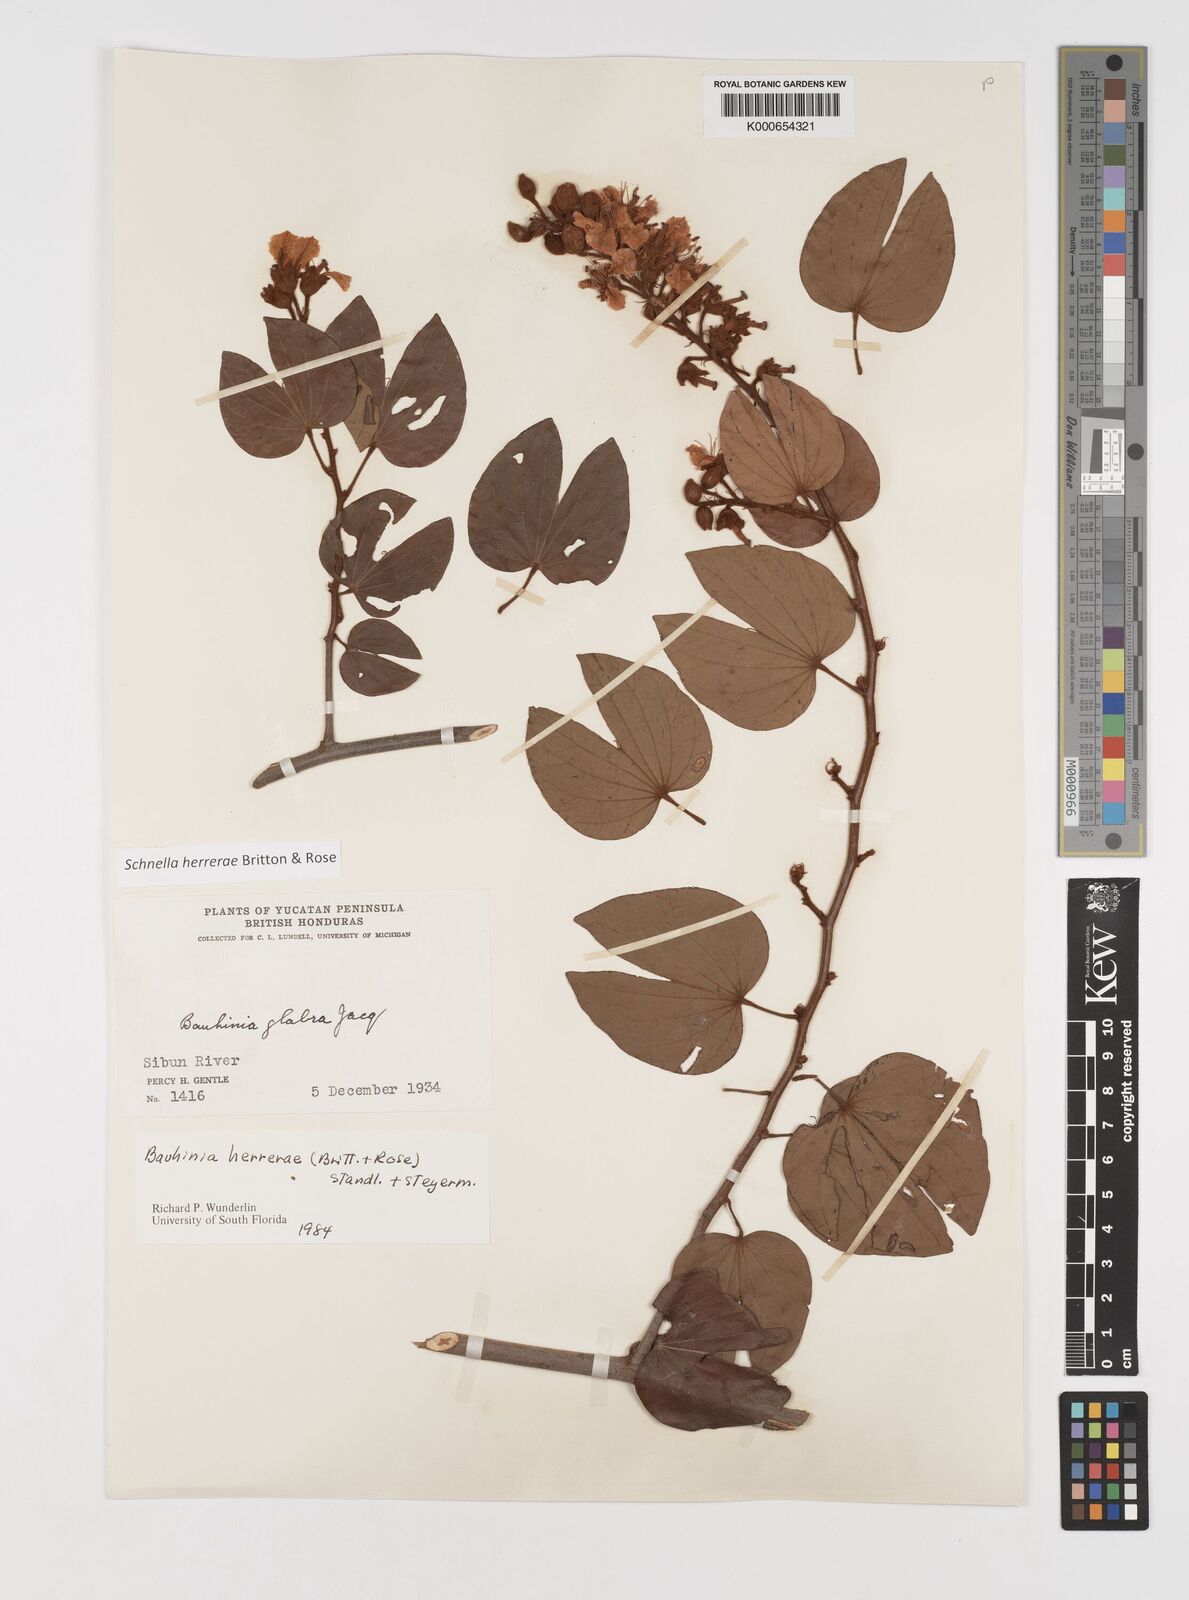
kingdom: Plantae
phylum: Tracheophyta
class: Magnoliopsida
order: Fabales
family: Fabaceae
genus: Schnella
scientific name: Schnella herrerae
